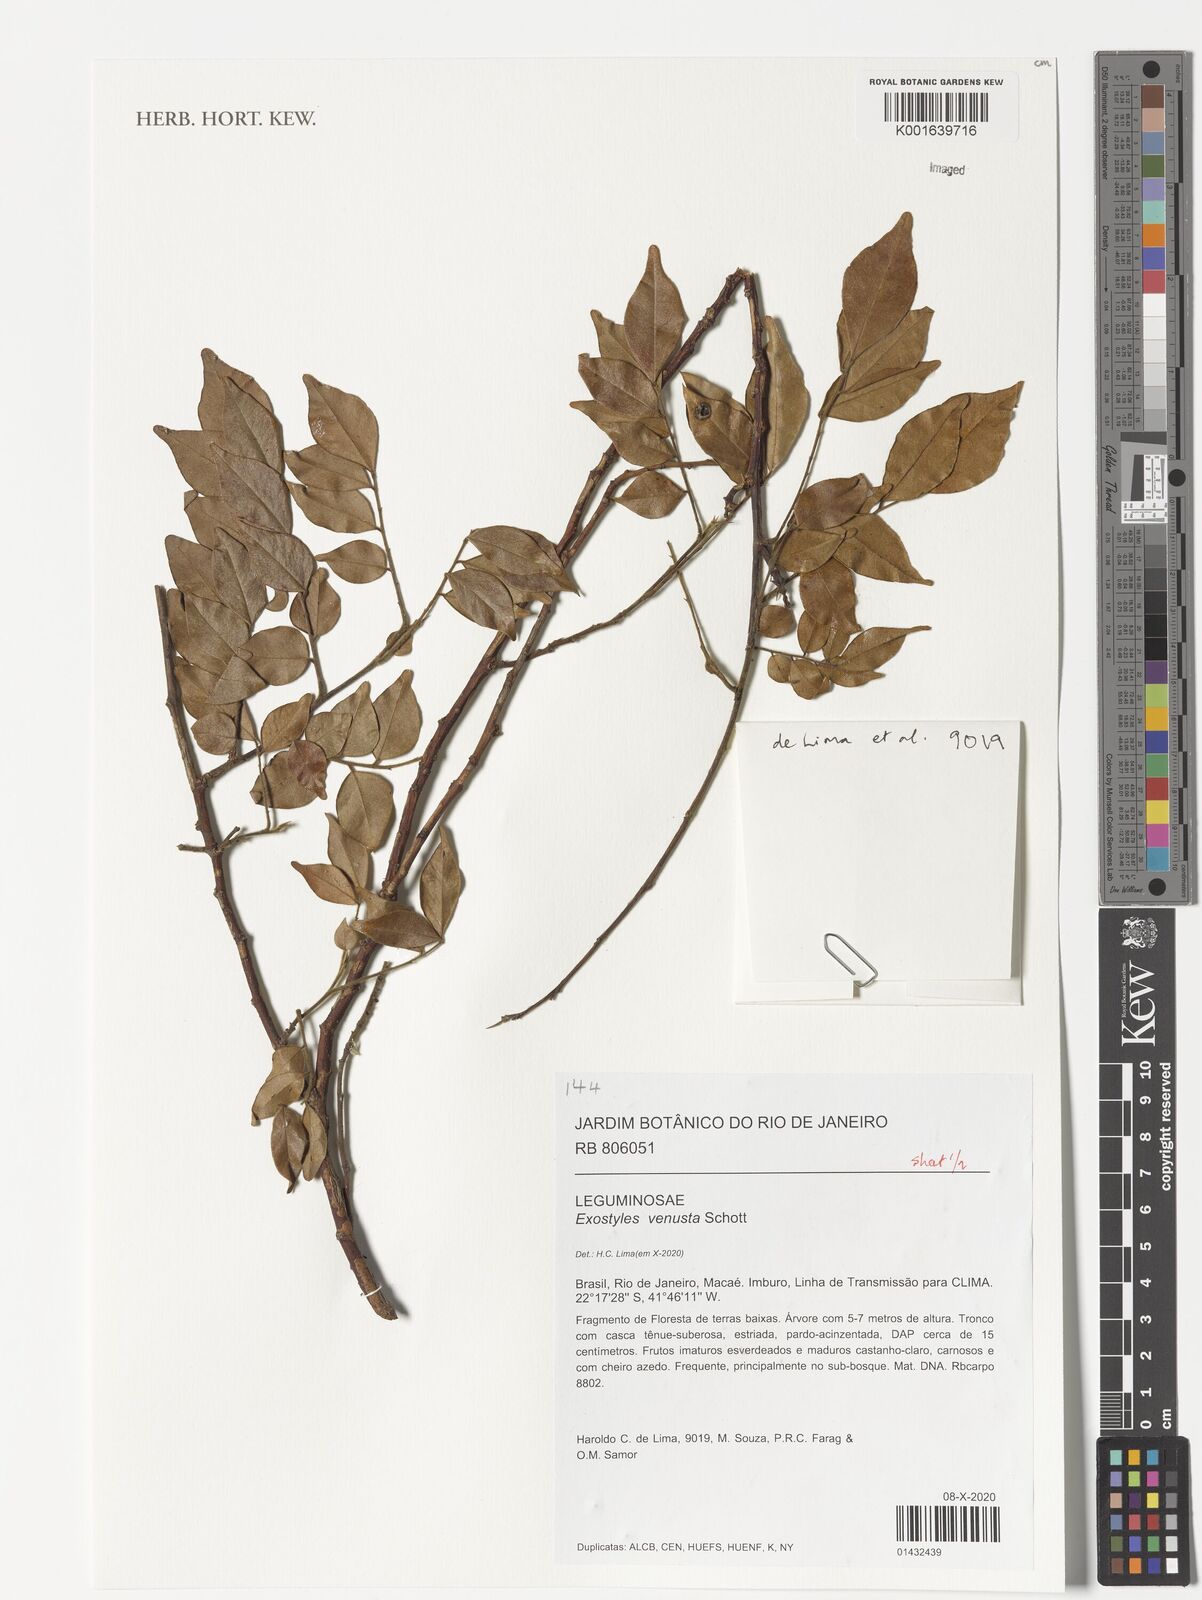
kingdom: Plantae
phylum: Tracheophyta
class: Magnoliopsida
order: Fabales
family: Fabaceae
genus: Exostyles
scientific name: Exostyles venusta
